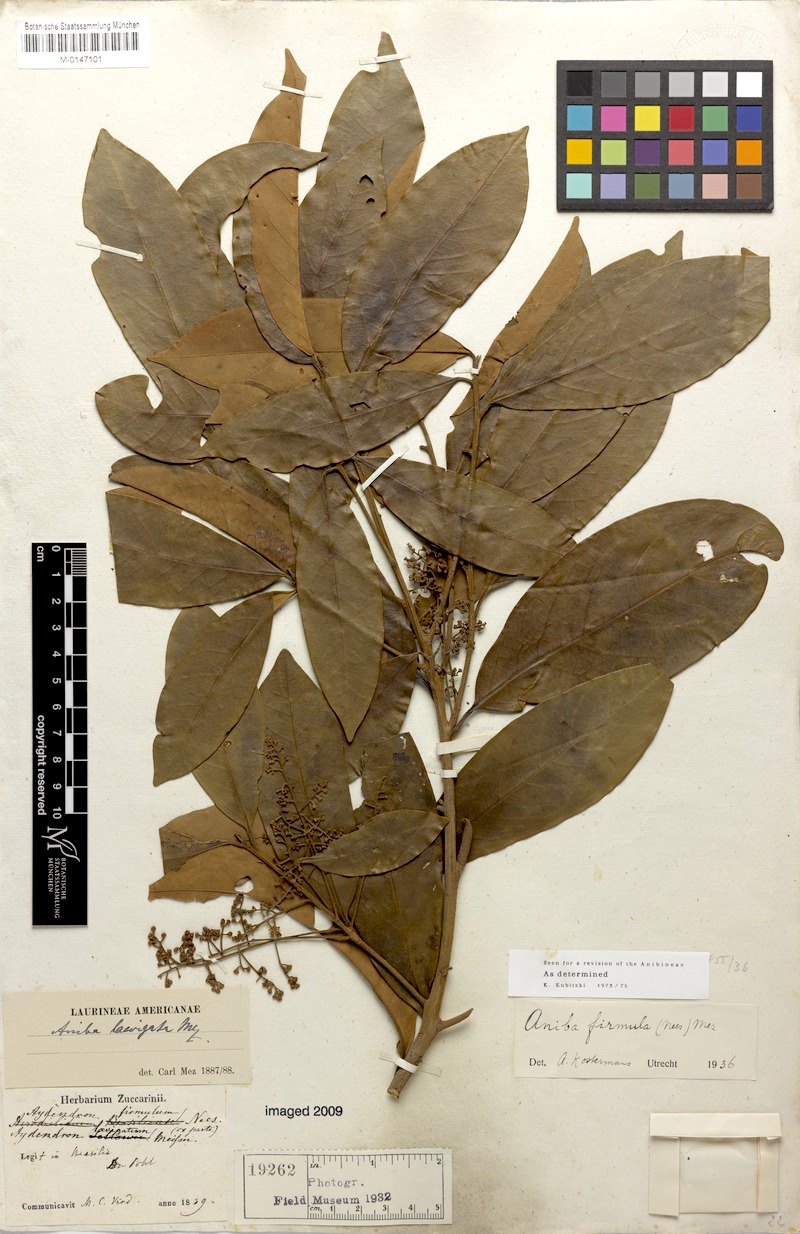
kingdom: Plantae
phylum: Tracheophyta
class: Magnoliopsida
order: Laurales
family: Lauraceae
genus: Aniba
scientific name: Aniba firmula
